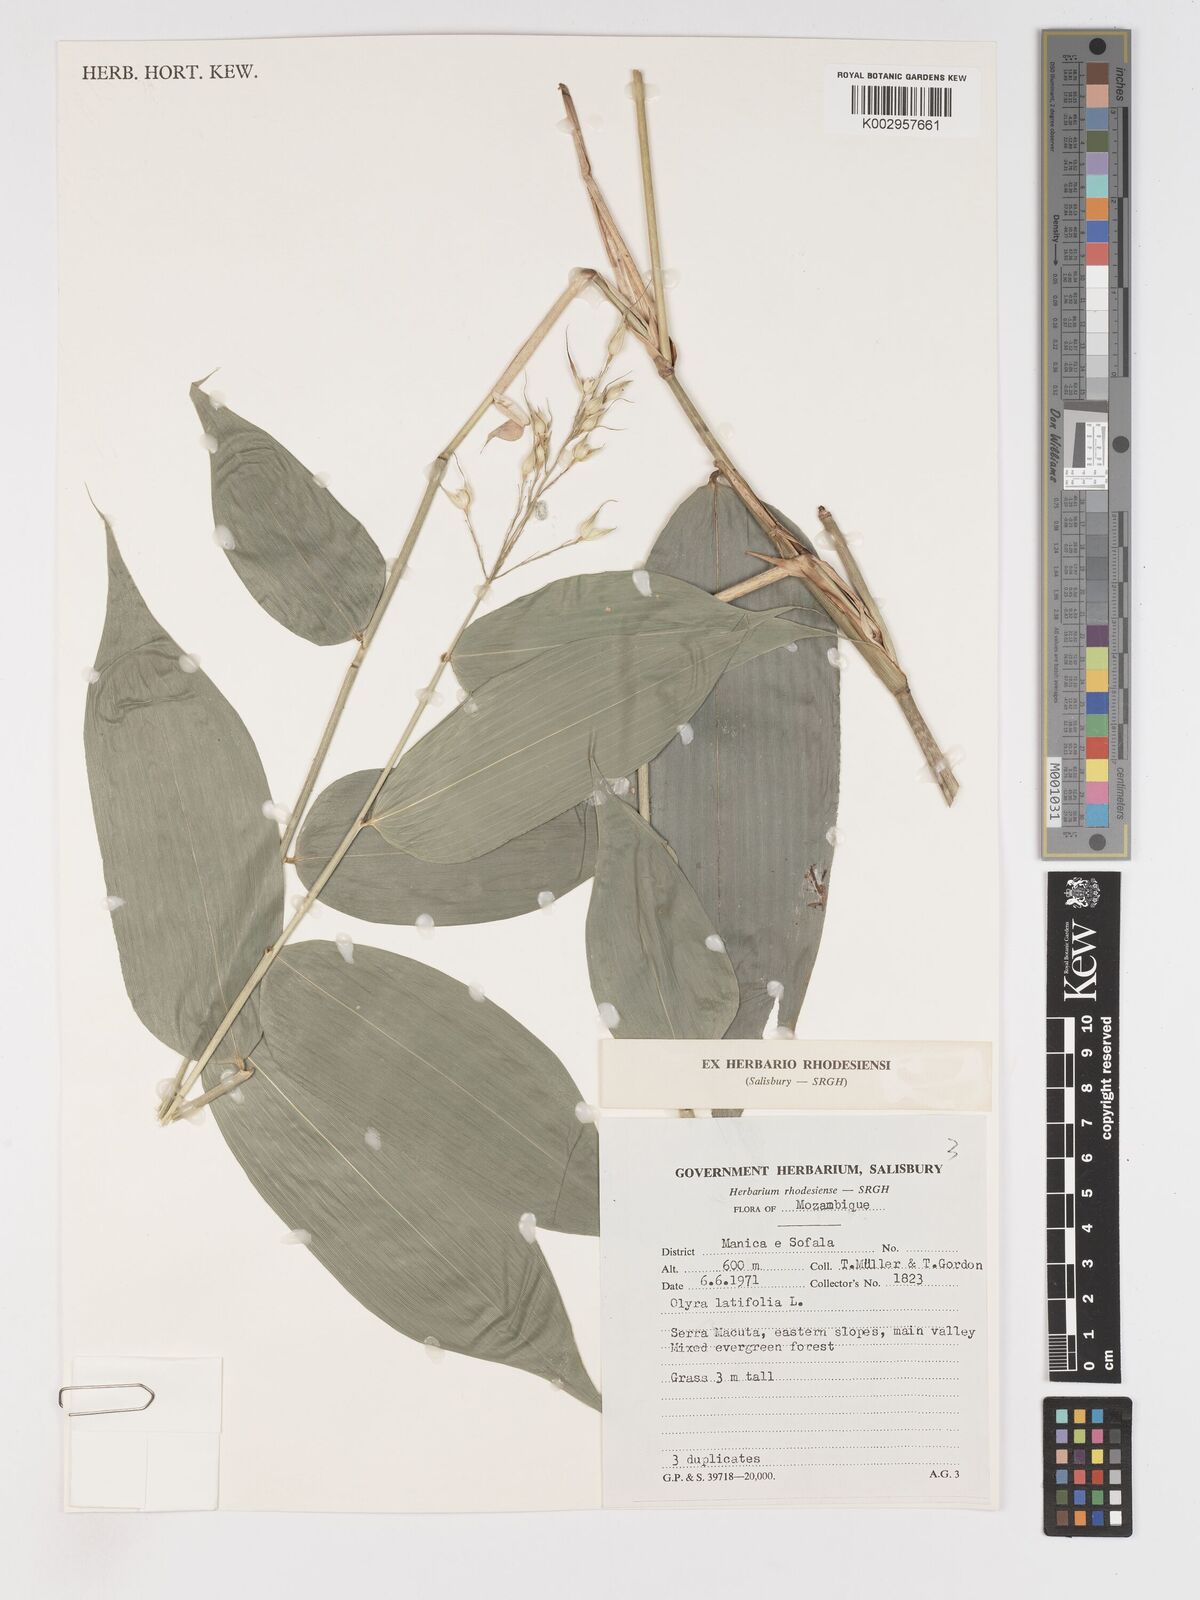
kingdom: Plantae
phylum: Tracheophyta
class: Liliopsida
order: Poales
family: Poaceae
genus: Olyra
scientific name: Olyra latifolia
